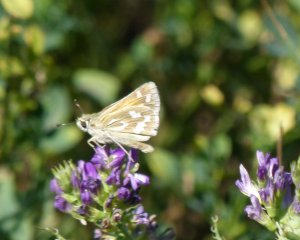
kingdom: Animalia
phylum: Arthropoda
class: Insecta
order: Lepidoptera
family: Hesperiidae
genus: Hesperia
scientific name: Hesperia comma
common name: Western Branded Skipper
